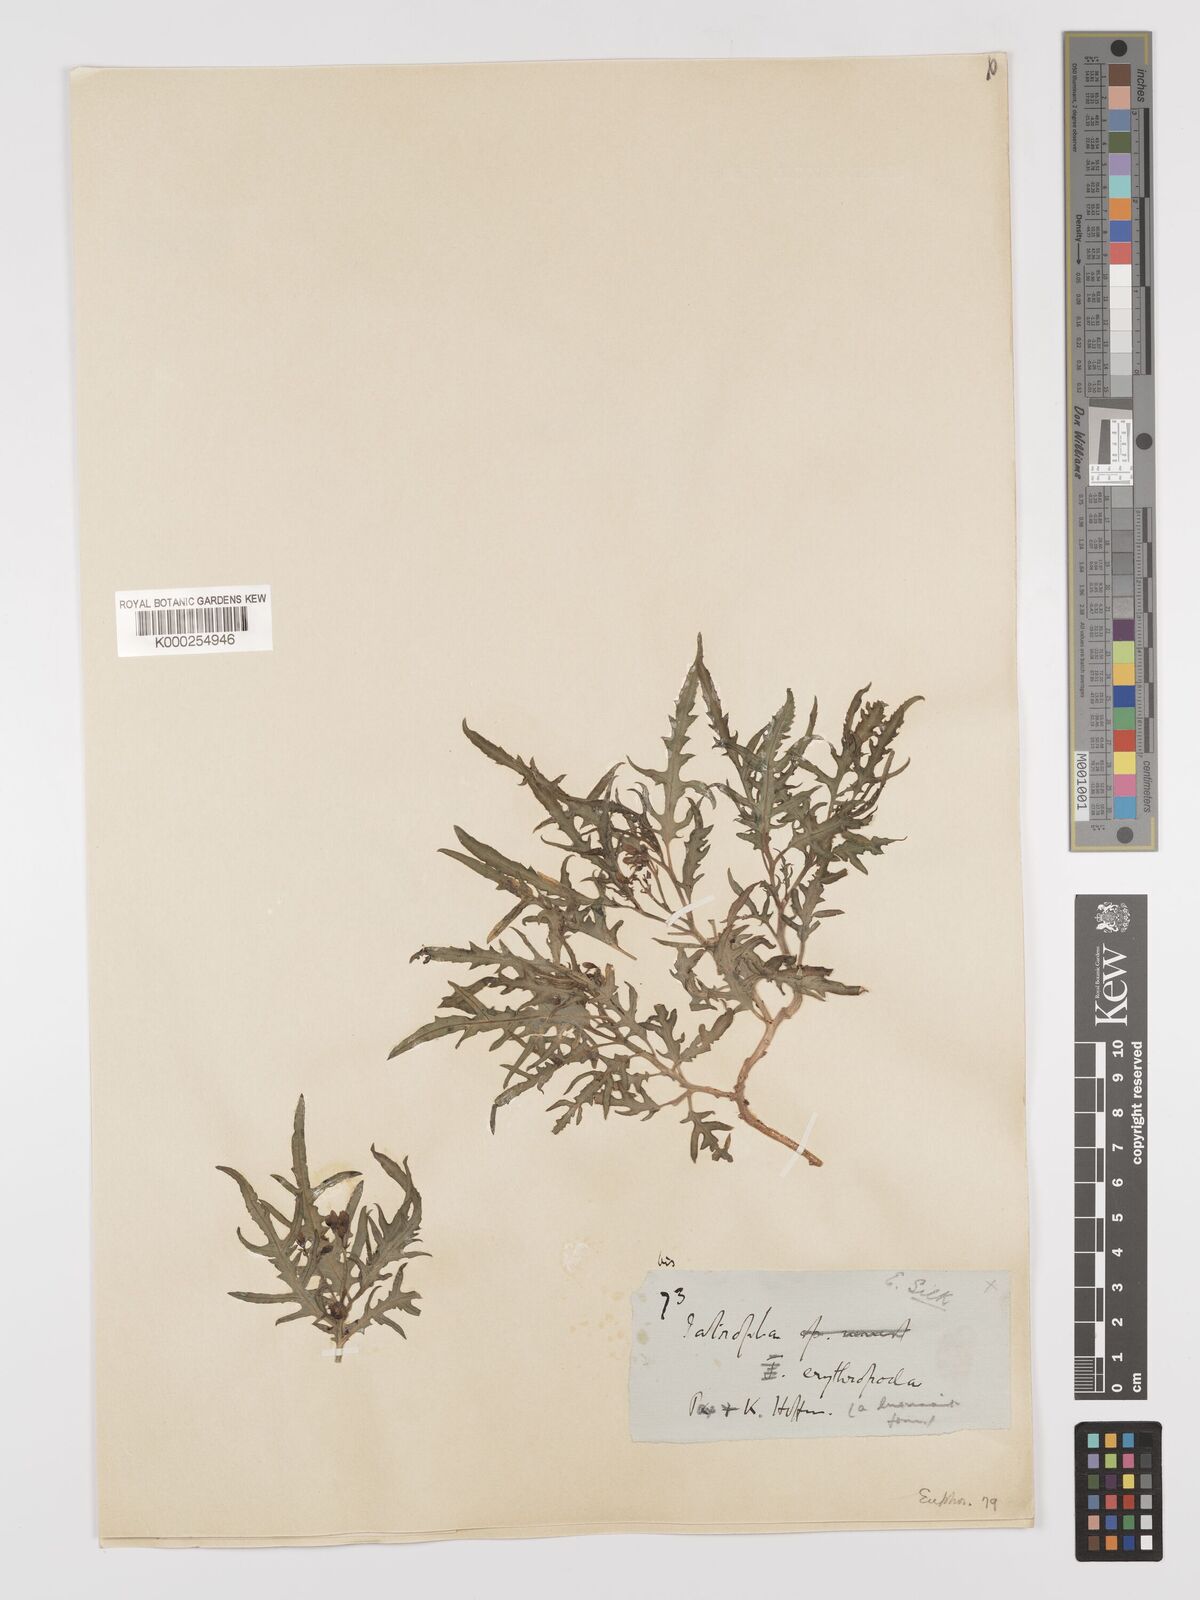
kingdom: Plantae
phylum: Tracheophyta
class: Magnoliopsida
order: Malpighiales
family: Euphorbiaceae
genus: Jatropha
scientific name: Jatropha erythropoda
